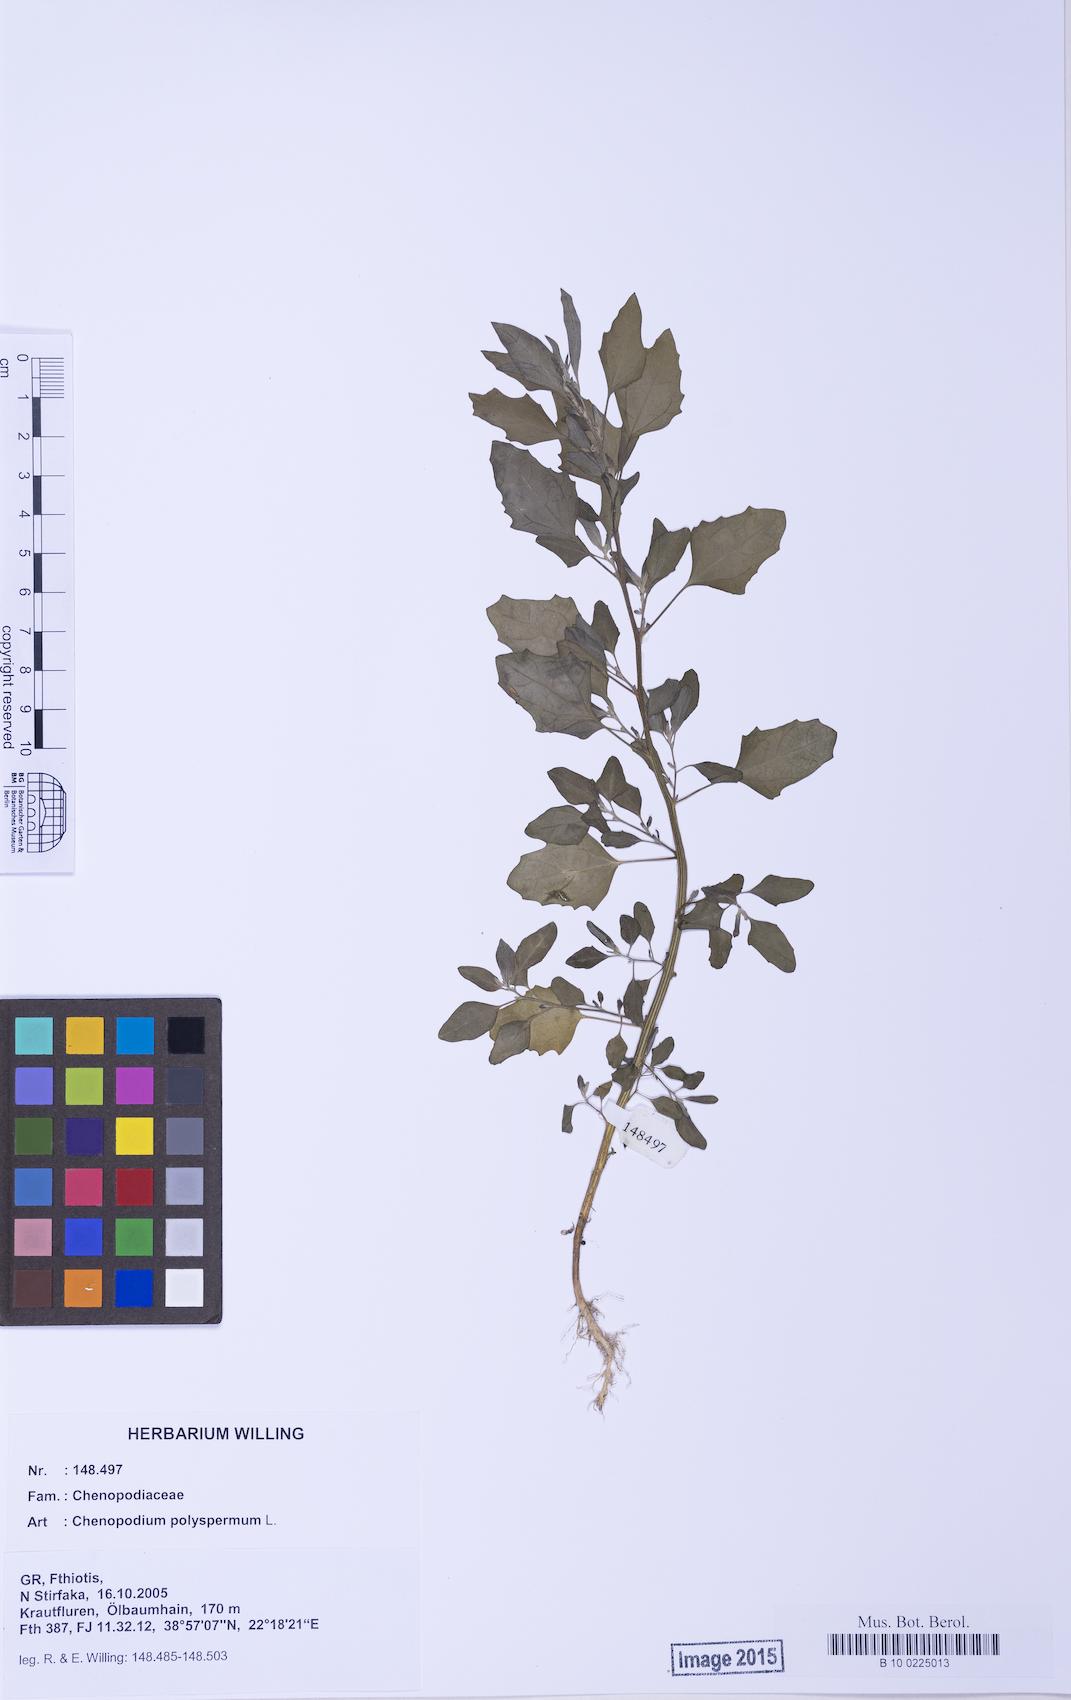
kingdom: Plantae
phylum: Tracheophyta
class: Magnoliopsida
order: Caryophyllales
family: Amaranthaceae
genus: Chenopodium
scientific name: Chenopodium album
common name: Fat-hen
